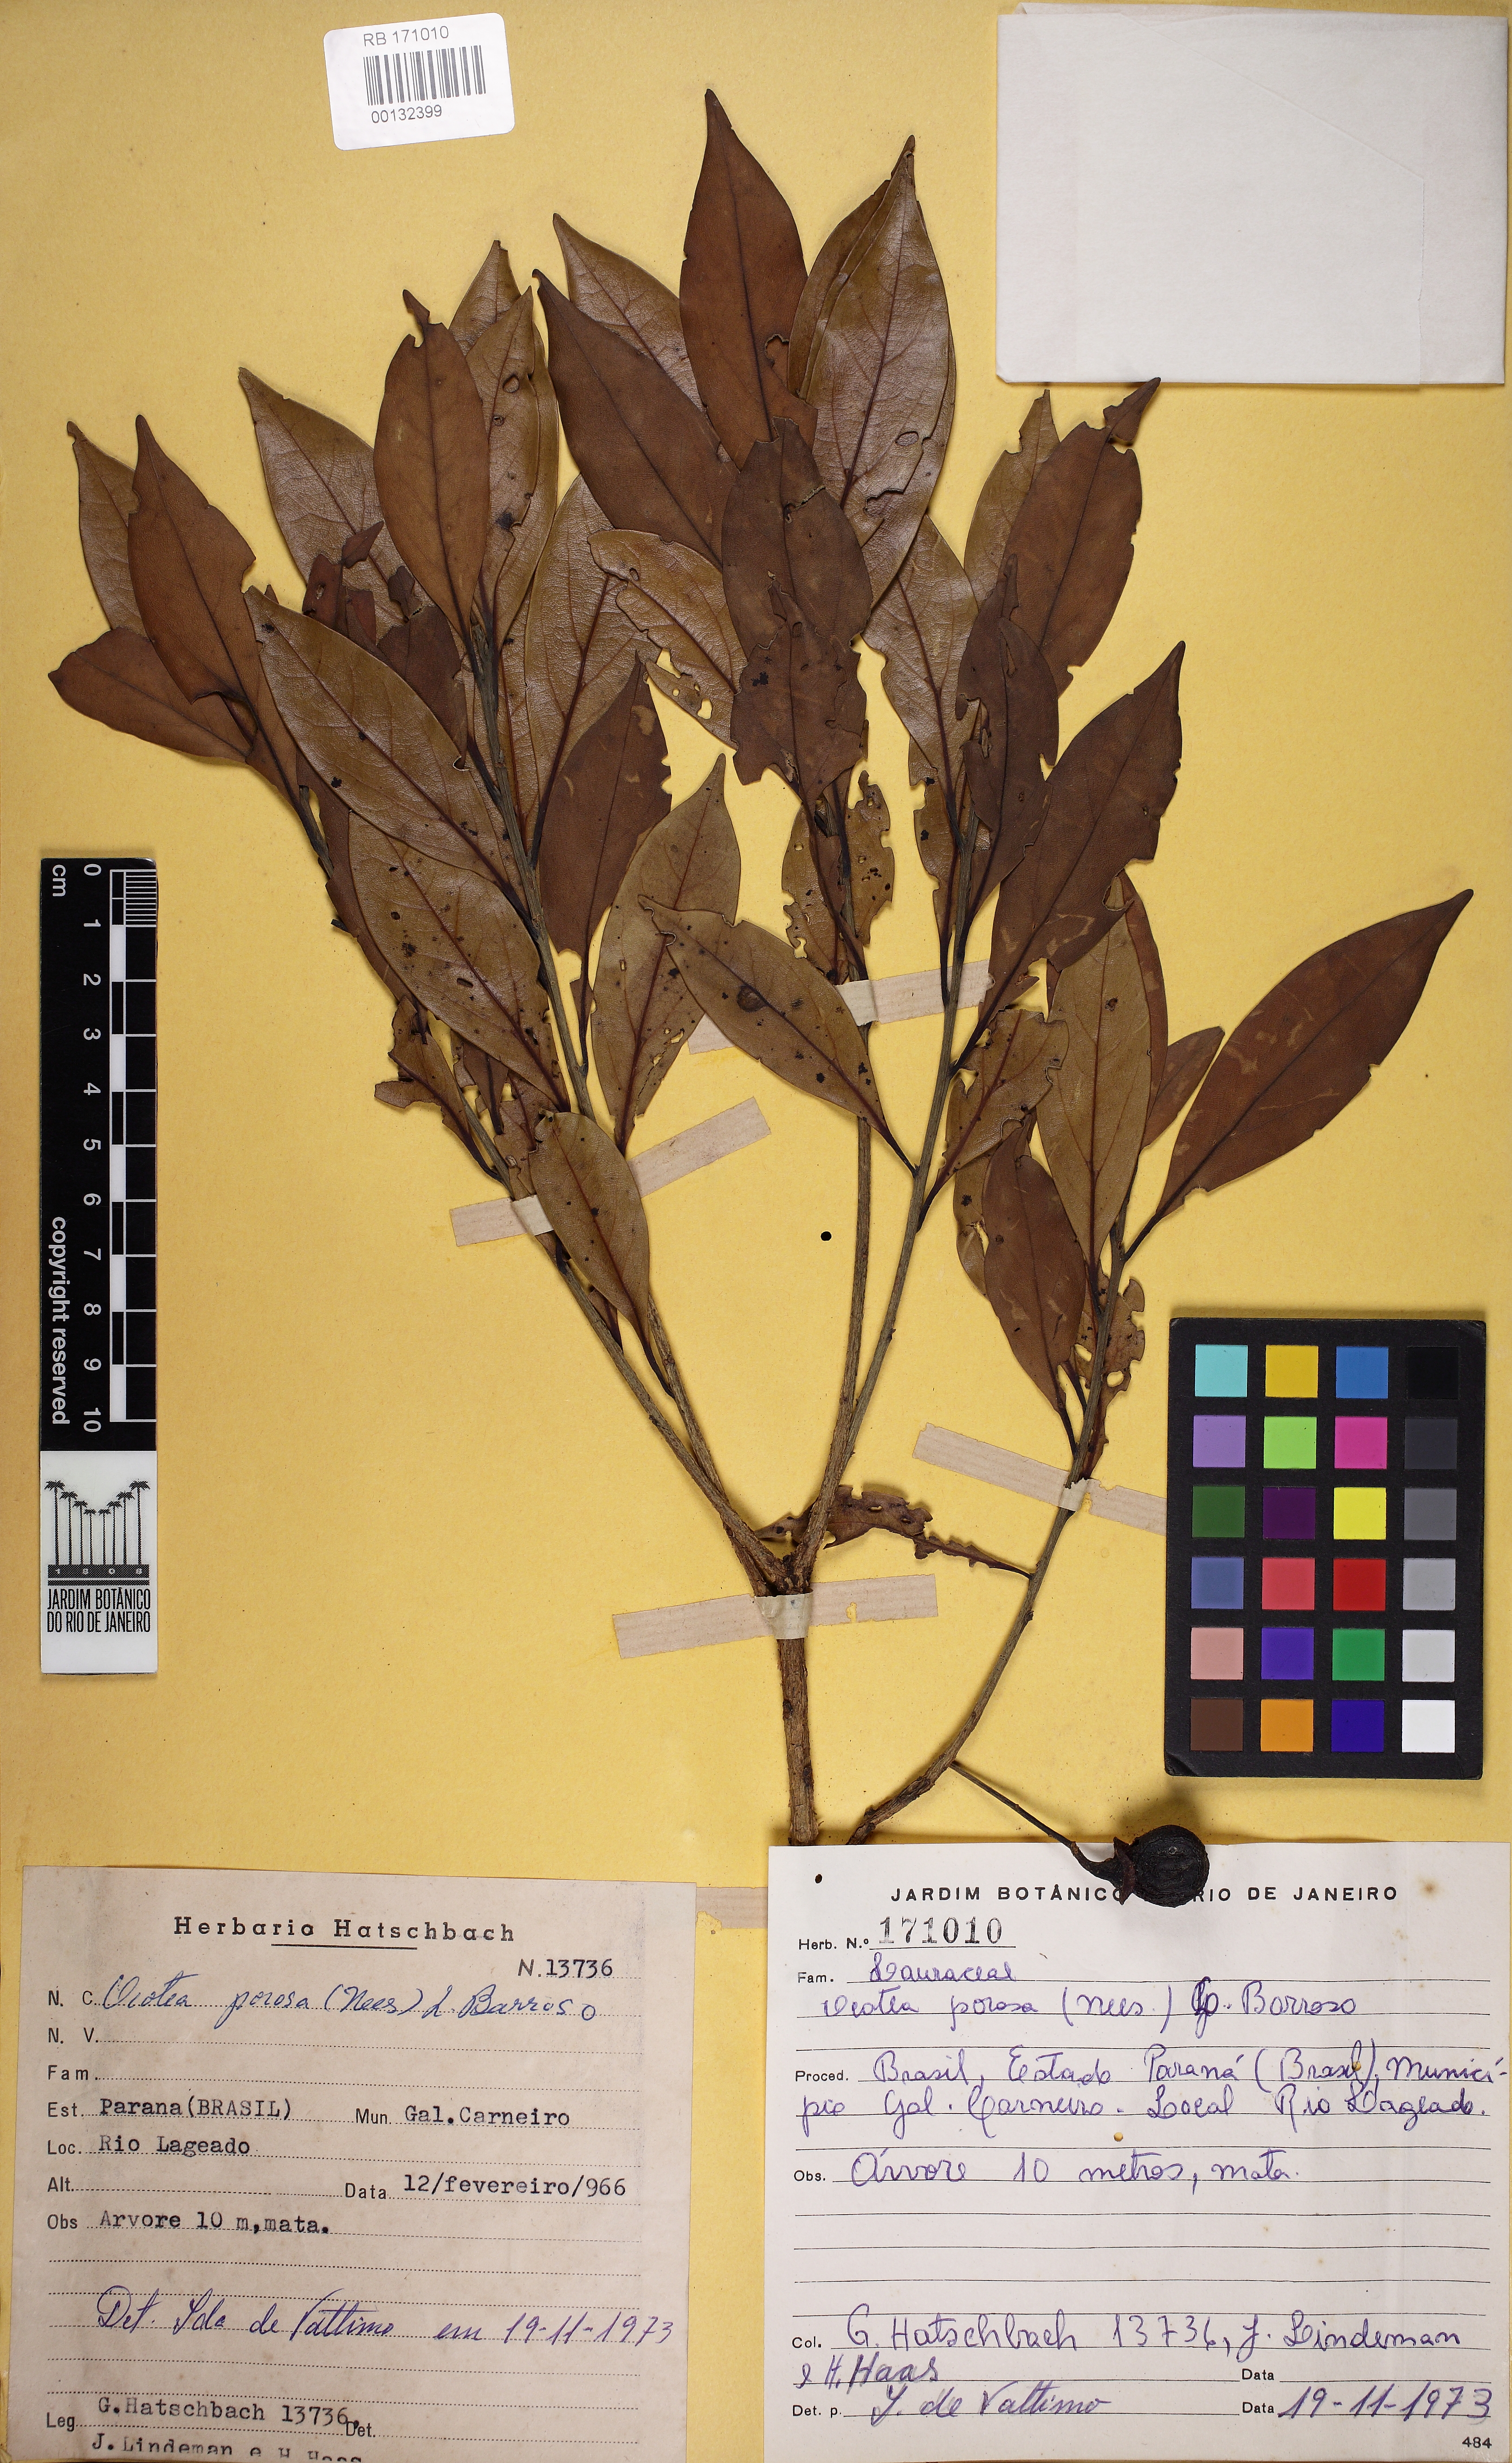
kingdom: Plantae
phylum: Tracheophyta
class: Magnoliopsida
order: Laurales
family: Lauraceae
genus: Ocotea
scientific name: Ocotea porosa
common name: Brazilian-walnut
